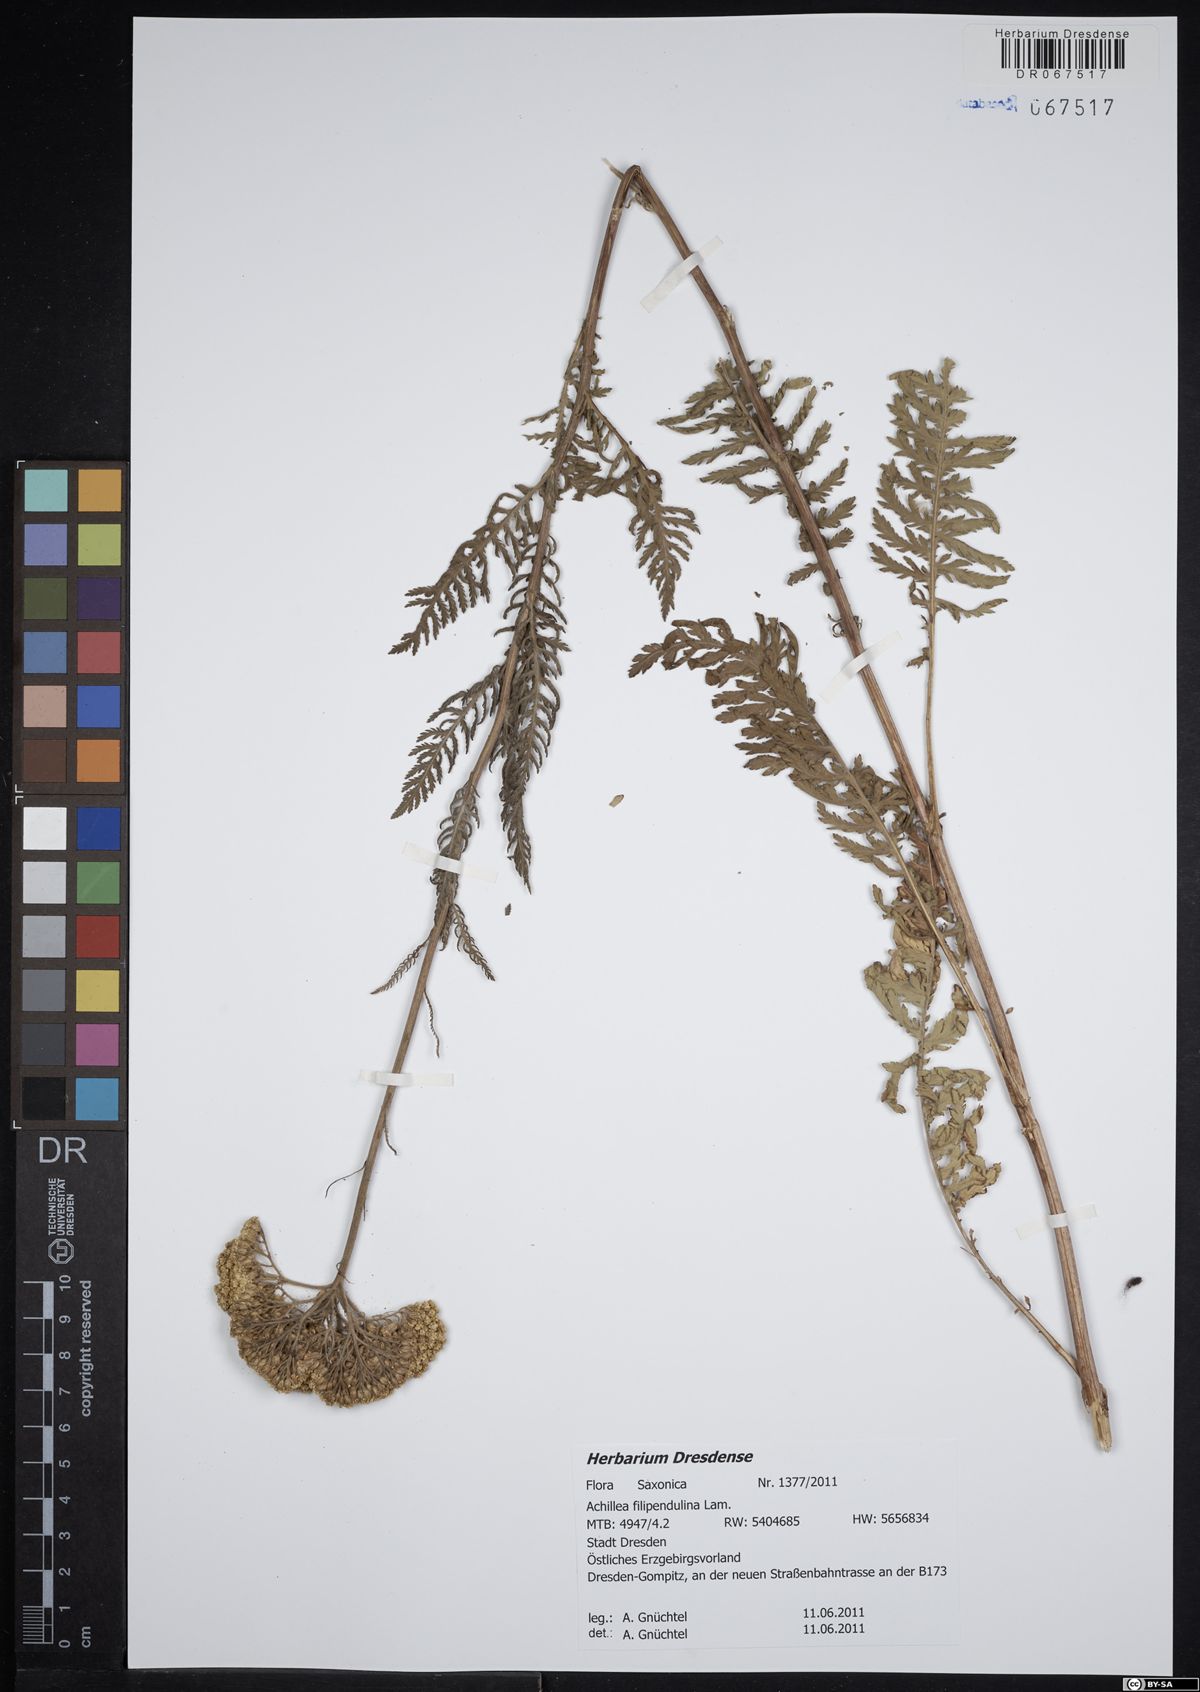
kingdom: Plantae
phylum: Tracheophyta
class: Magnoliopsida
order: Asterales
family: Asteraceae
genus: Achillea
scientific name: Achillea filipendulina
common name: Fernleaf yarrow
